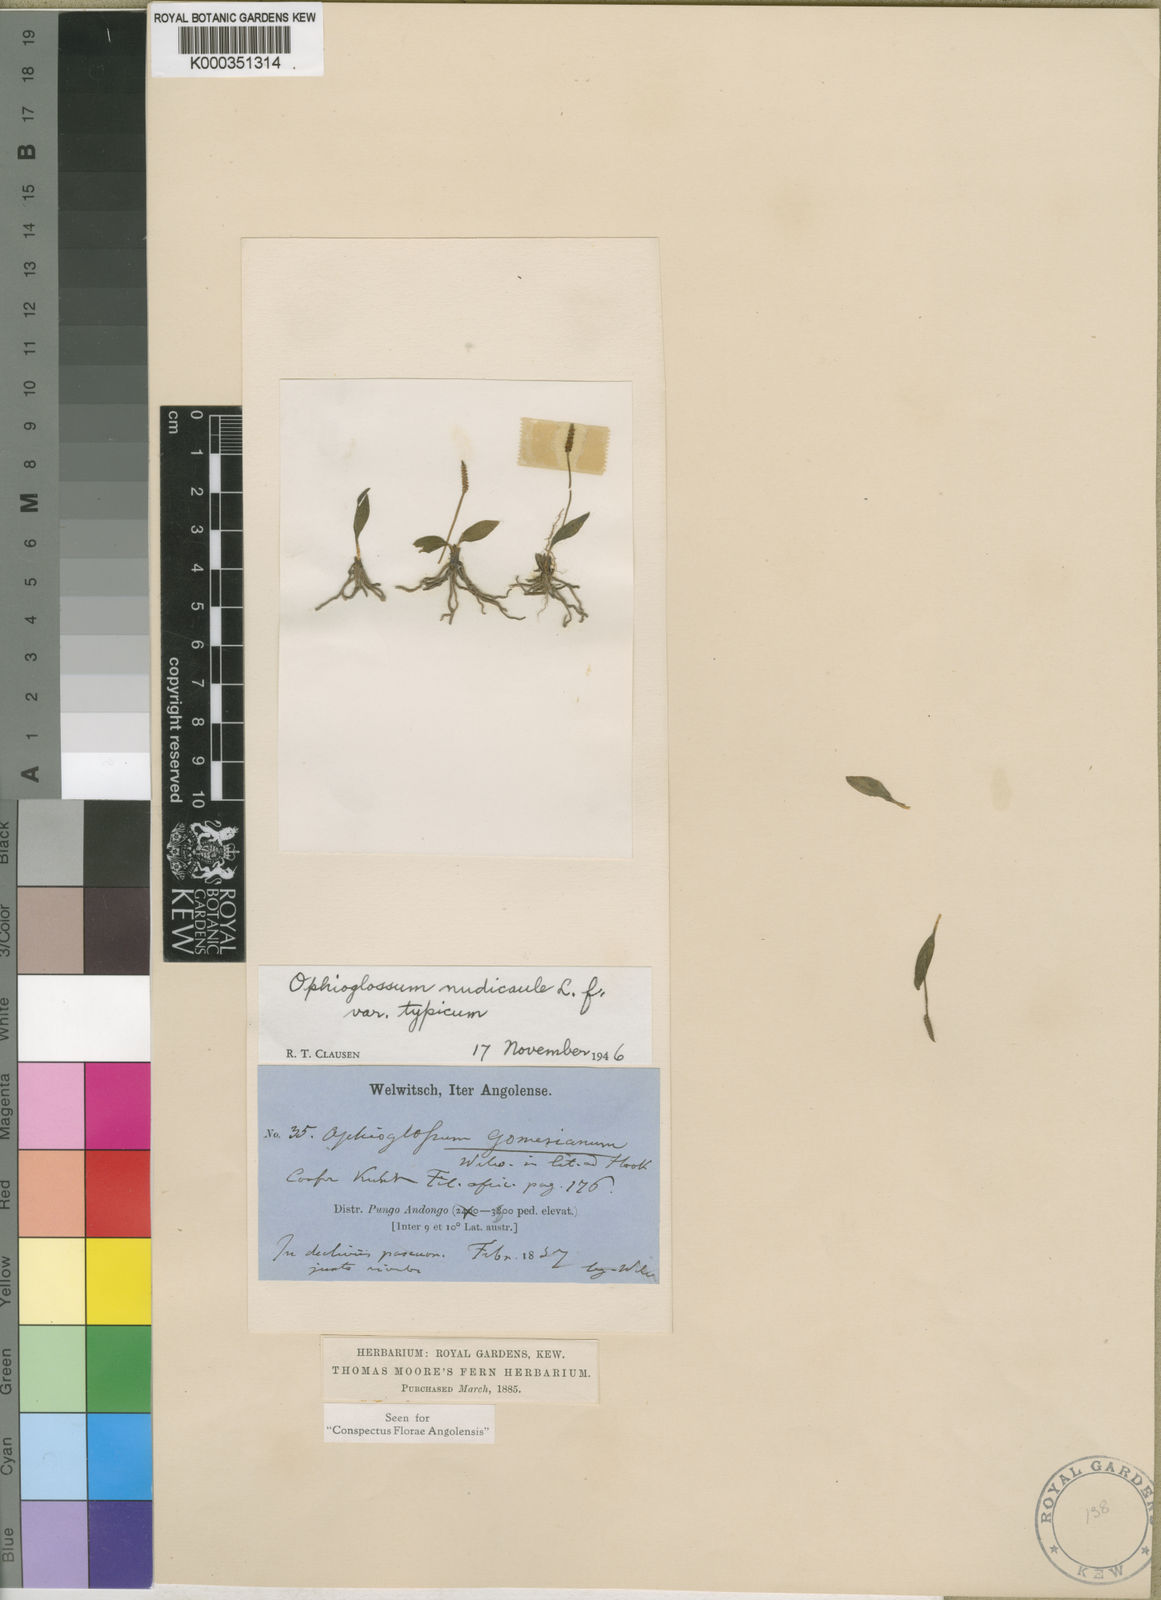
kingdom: Plantae
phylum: Tracheophyta
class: Polypodiopsida
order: Ophioglossales
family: Ophioglossaceae
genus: Ophioglossum
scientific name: Ophioglossum gomezianum
